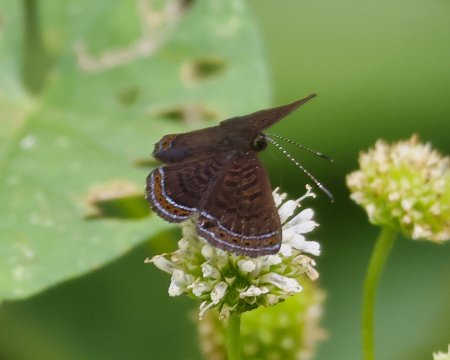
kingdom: Animalia
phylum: Arthropoda
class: Insecta
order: Lepidoptera
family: Riodinidae
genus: Detritivora
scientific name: Detritivora
